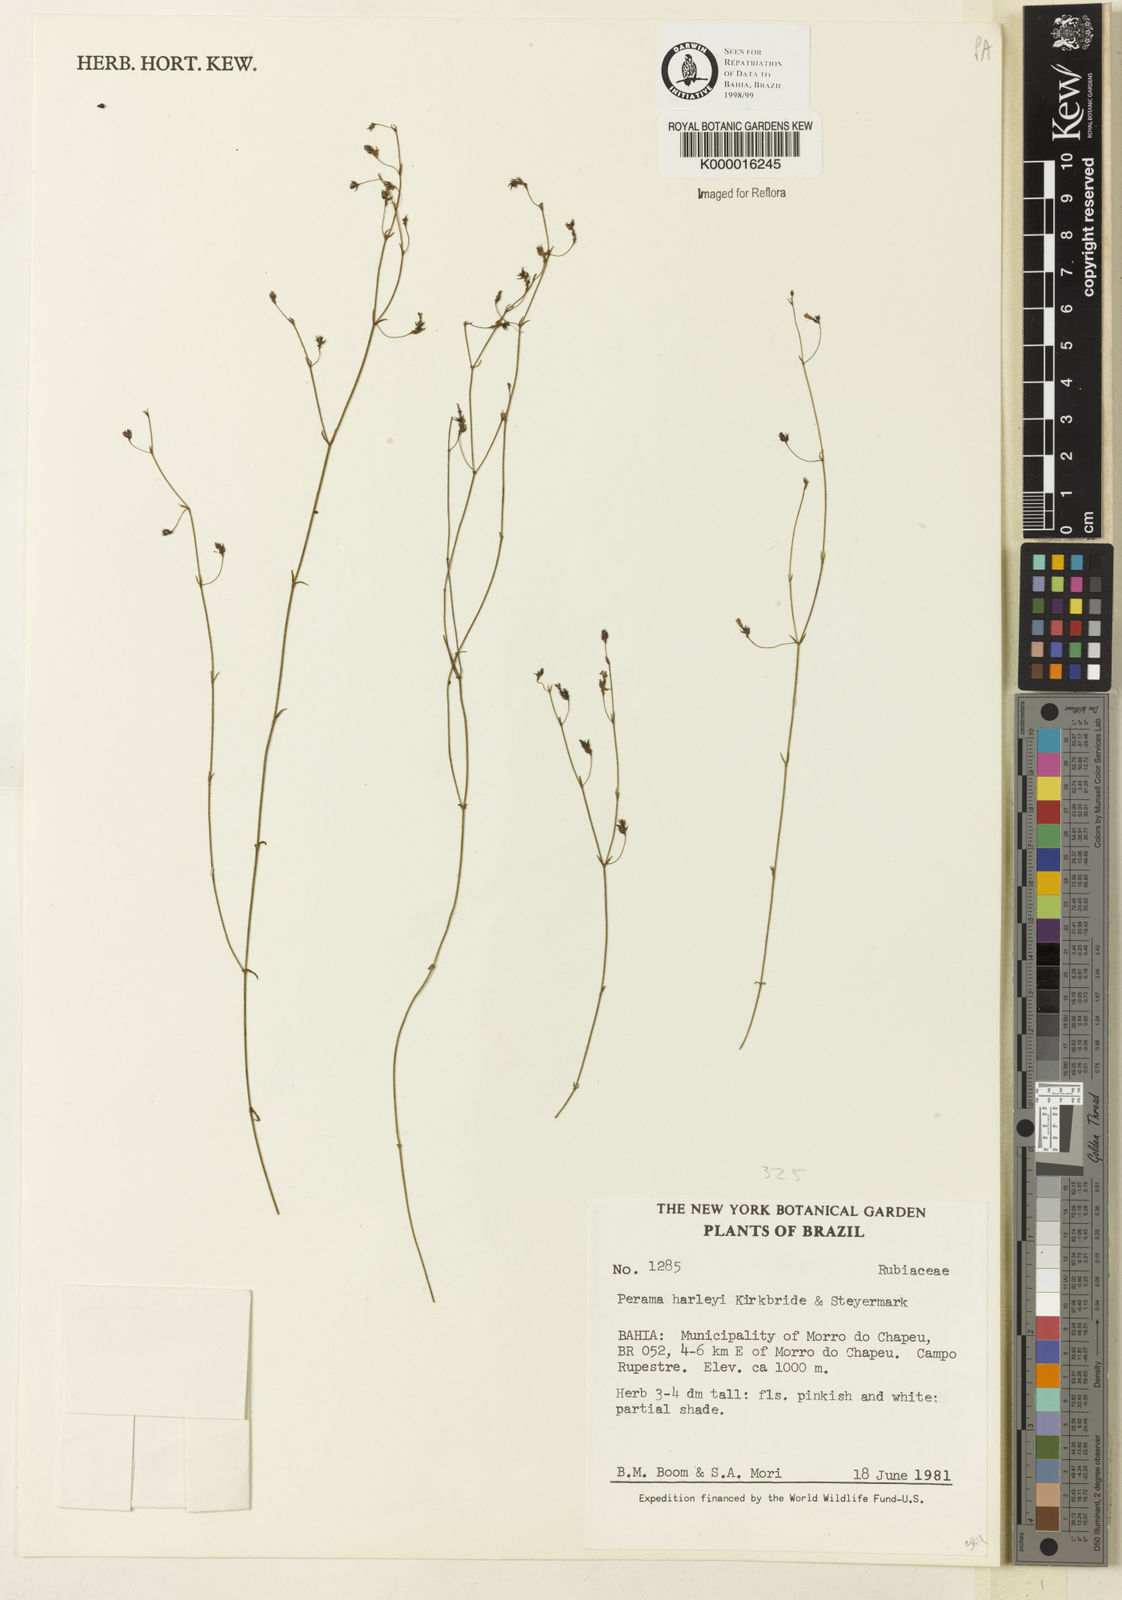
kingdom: Plantae
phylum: Tracheophyta
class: Magnoliopsida
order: Gentianales
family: Rubiaceae
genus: Perama
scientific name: Perama harleyi
